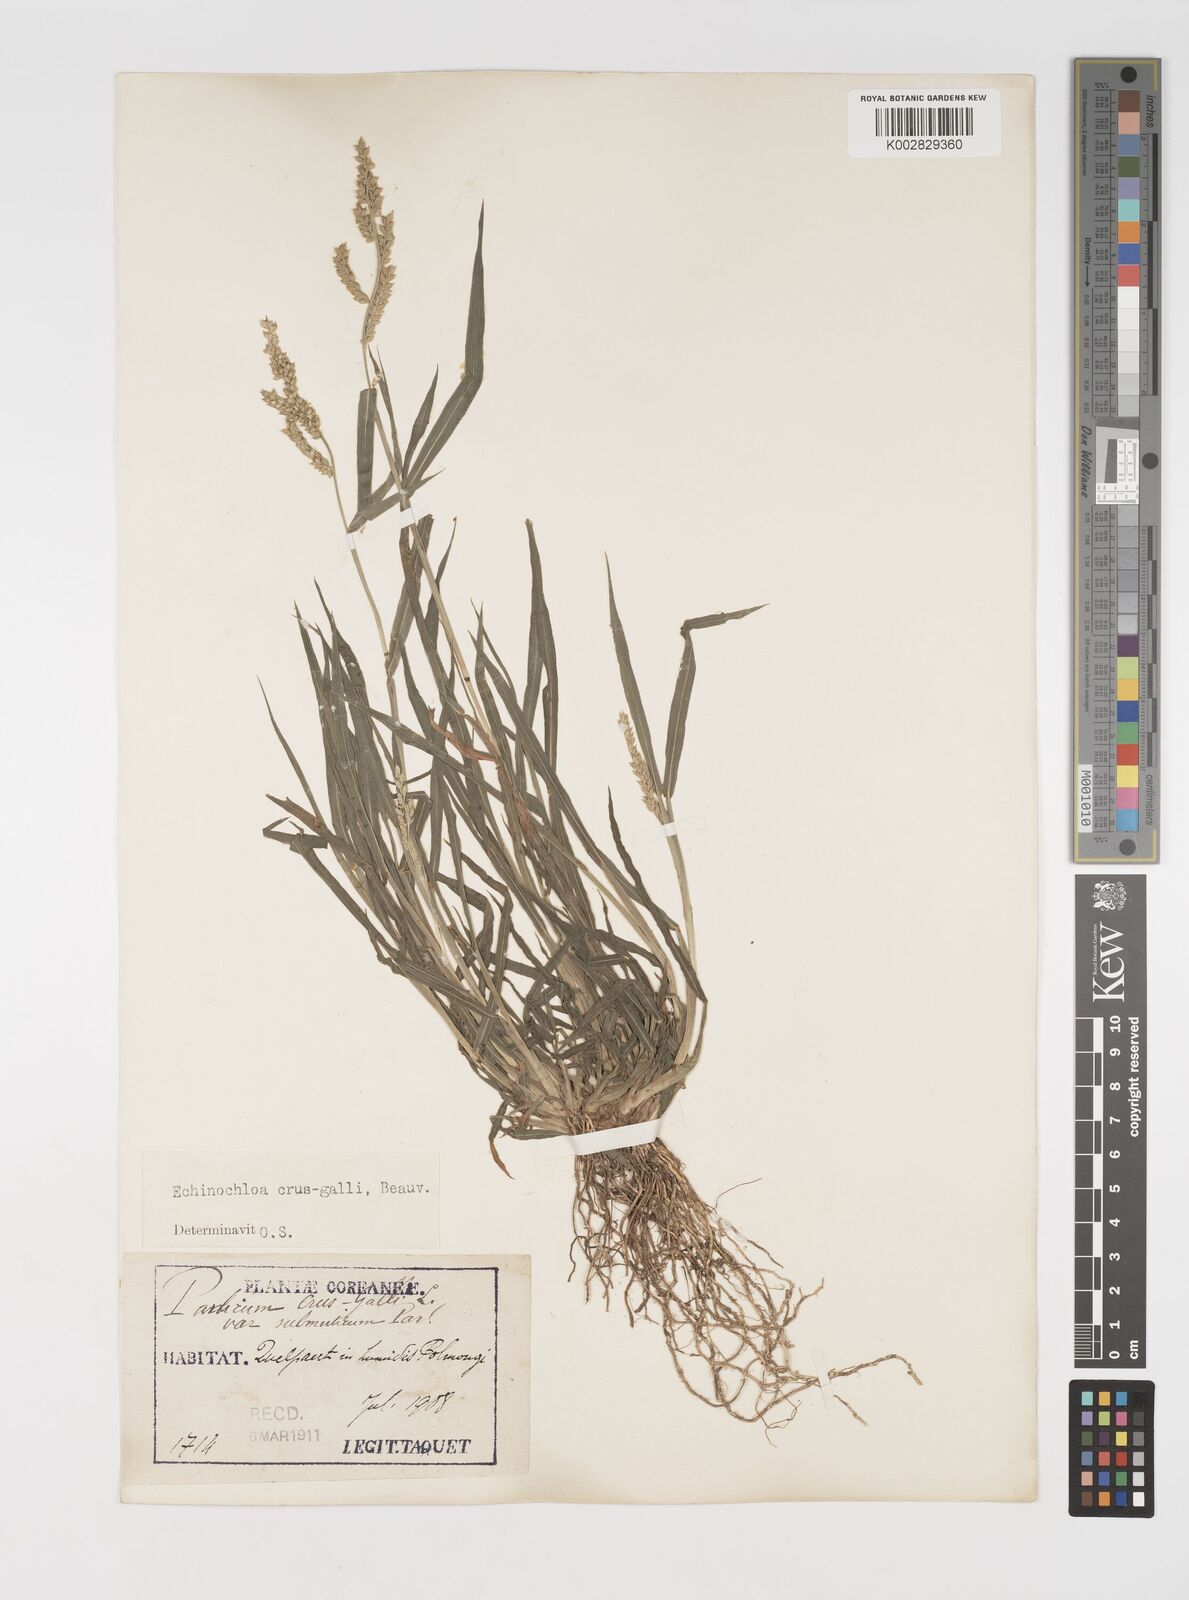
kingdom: Plantae
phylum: Tracheophyta
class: Liliopsida
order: Poales
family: Poaceae
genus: Echinochloa
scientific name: Echinochloa crus-galli
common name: Cockspur
